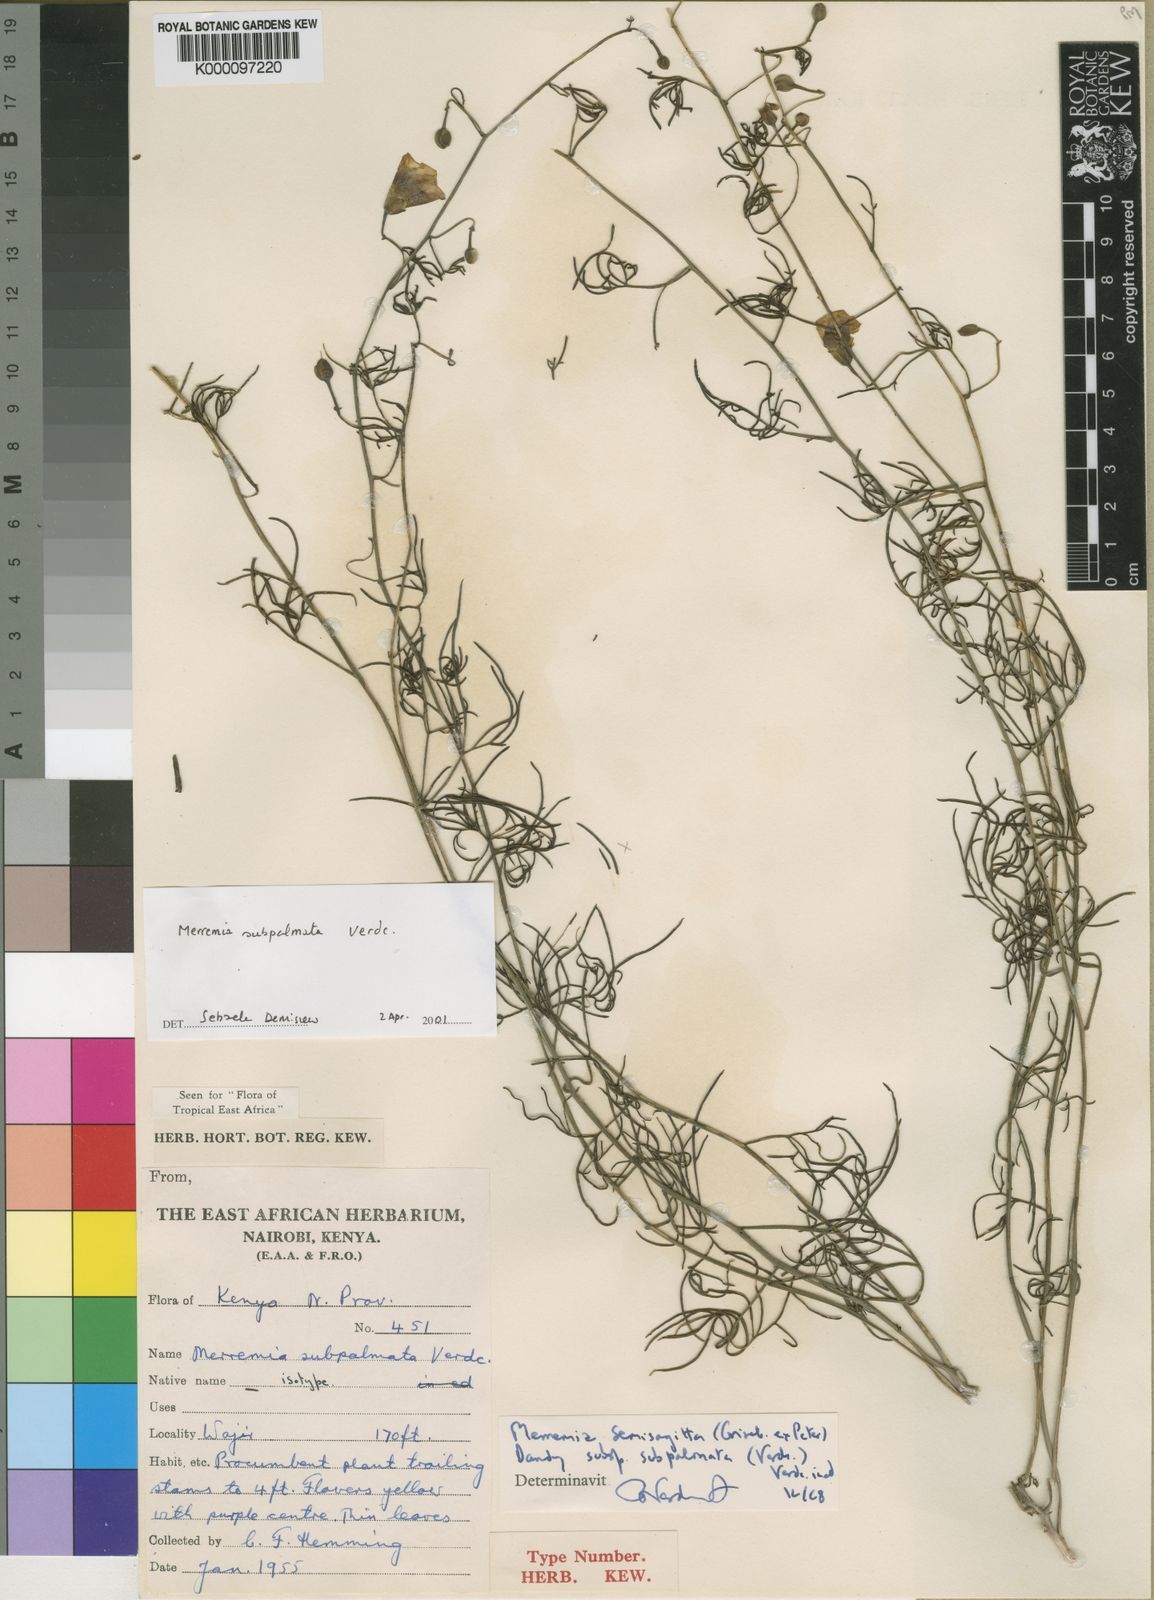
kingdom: Plantae
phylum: Tracheophyta
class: Magnoliopsida
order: Solanales
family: Convolvulaceae
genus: Distimake
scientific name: Distimake
